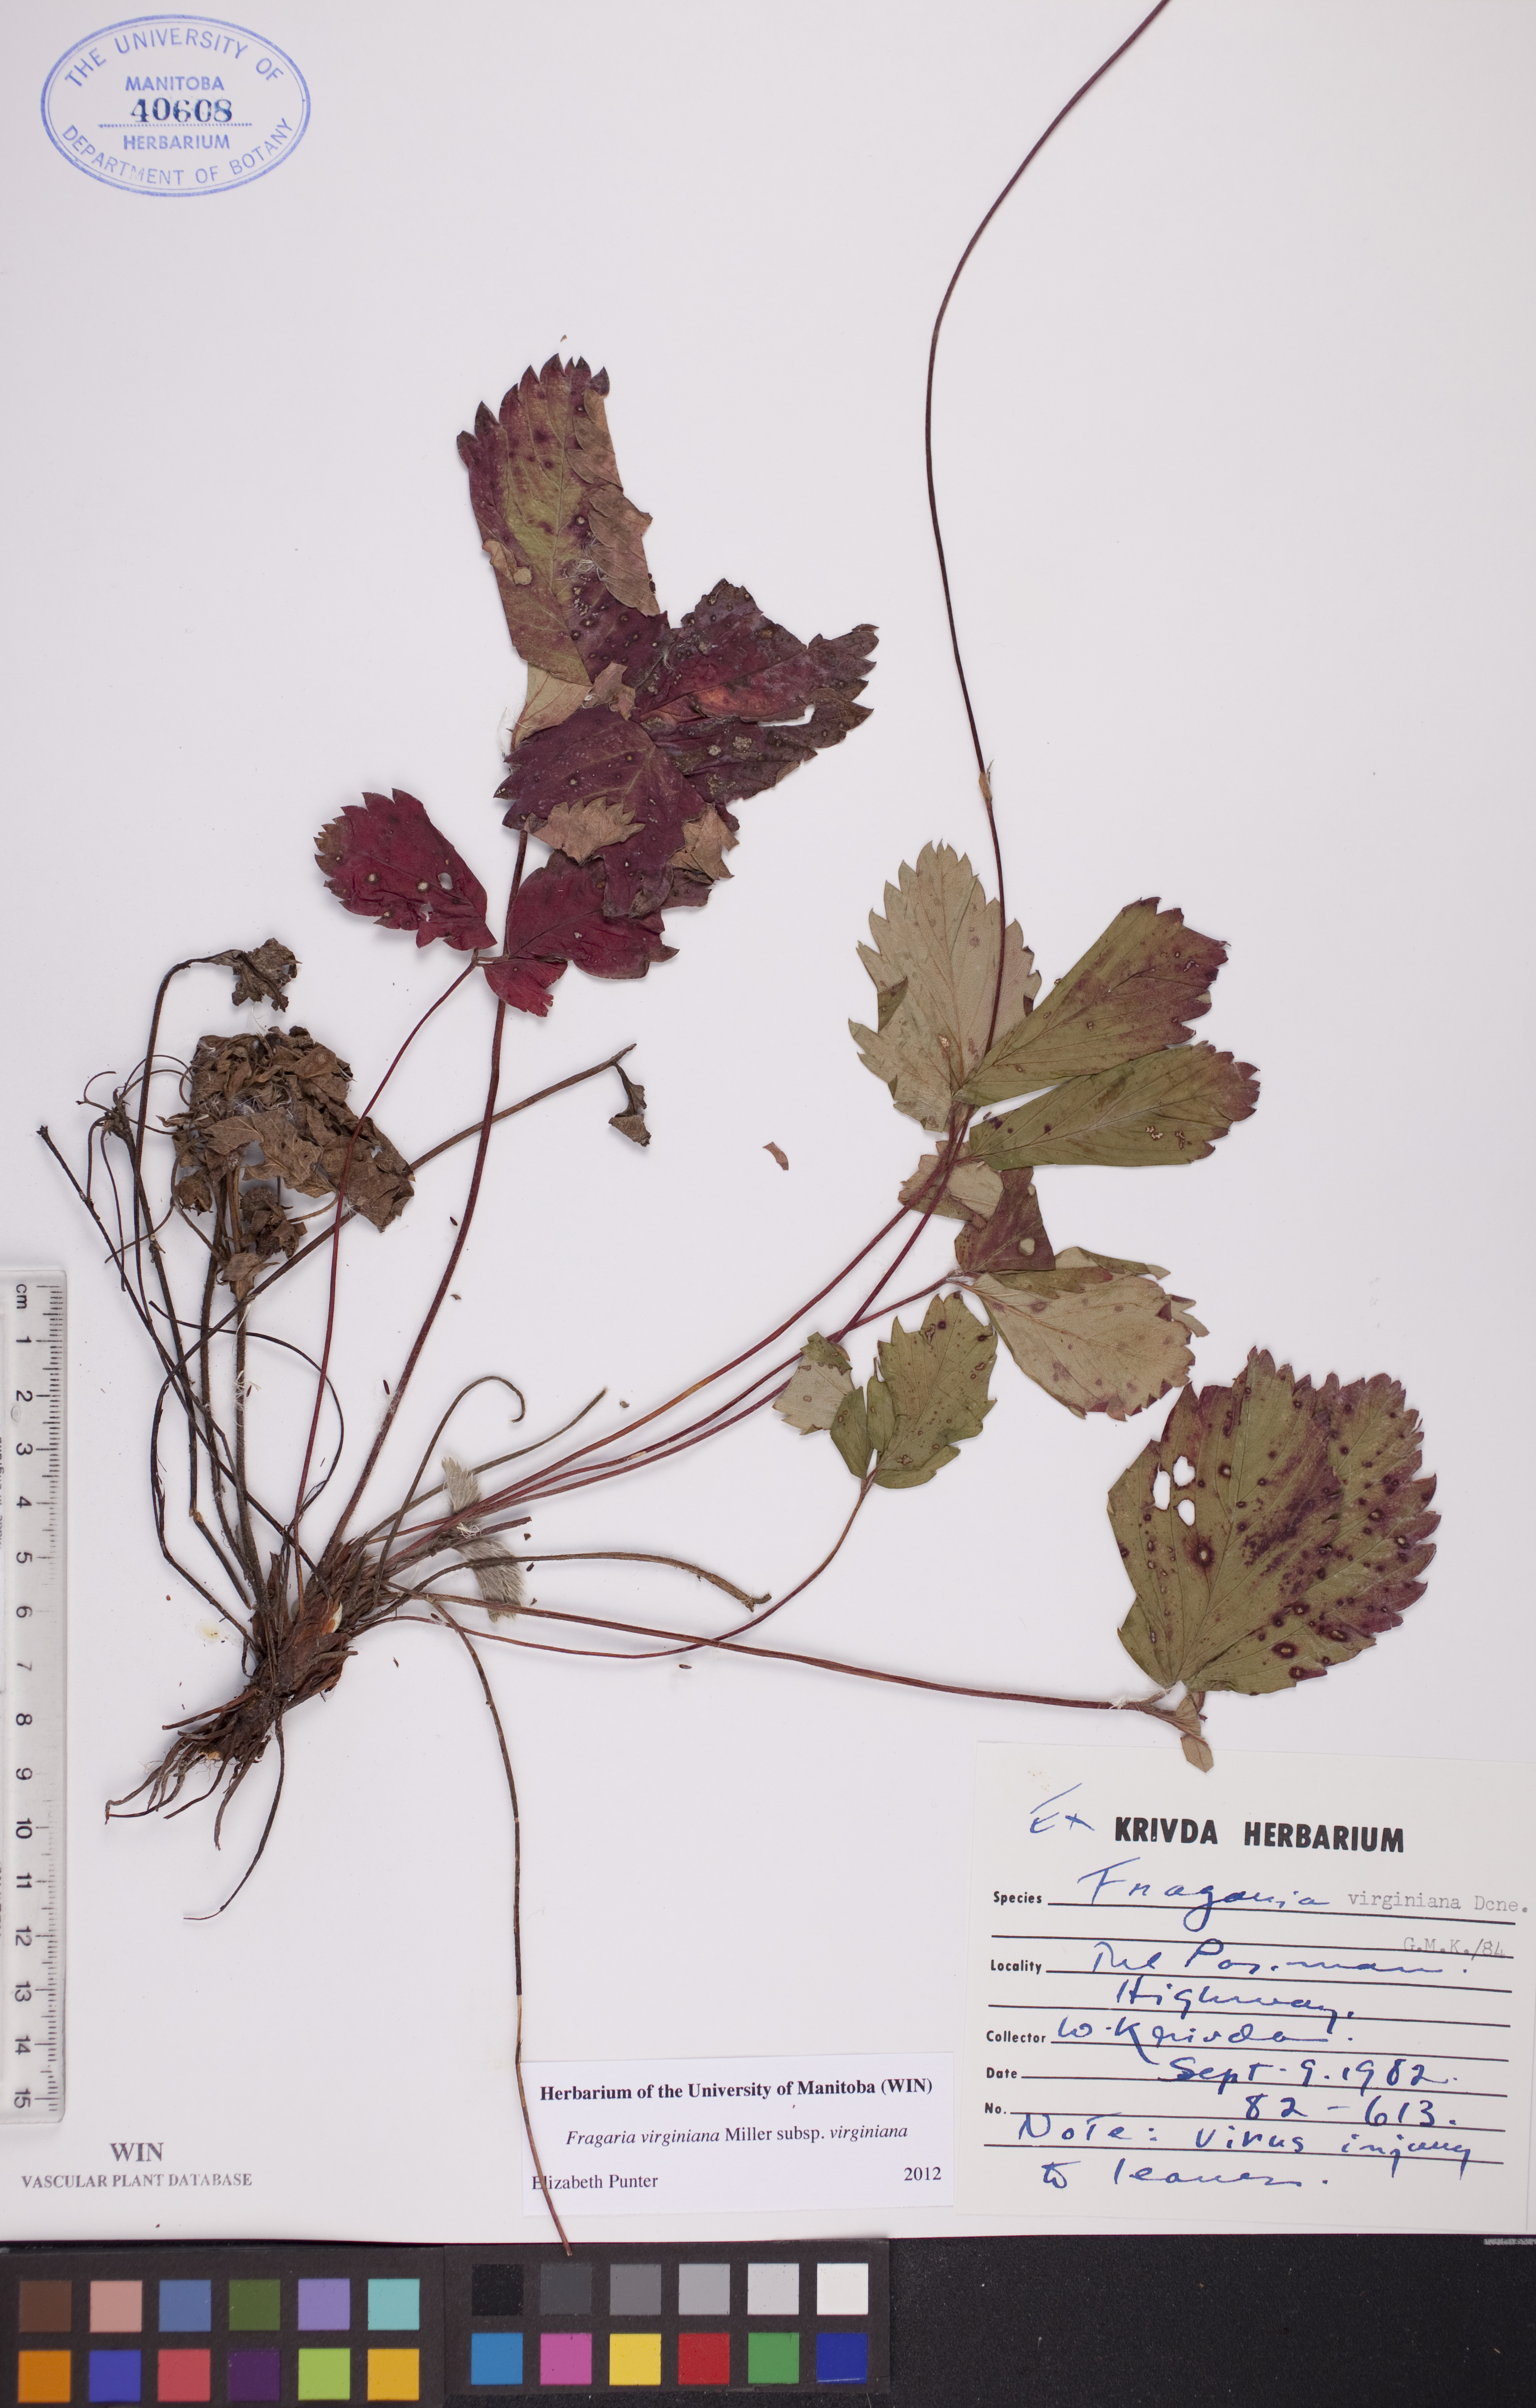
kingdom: Plantae
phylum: Tracheophyta
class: Magnoliopsida
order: Rosales
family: Rosaceae
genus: Fragaria
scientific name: Fragaria virginiana
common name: Thickleaved wild strawberry
